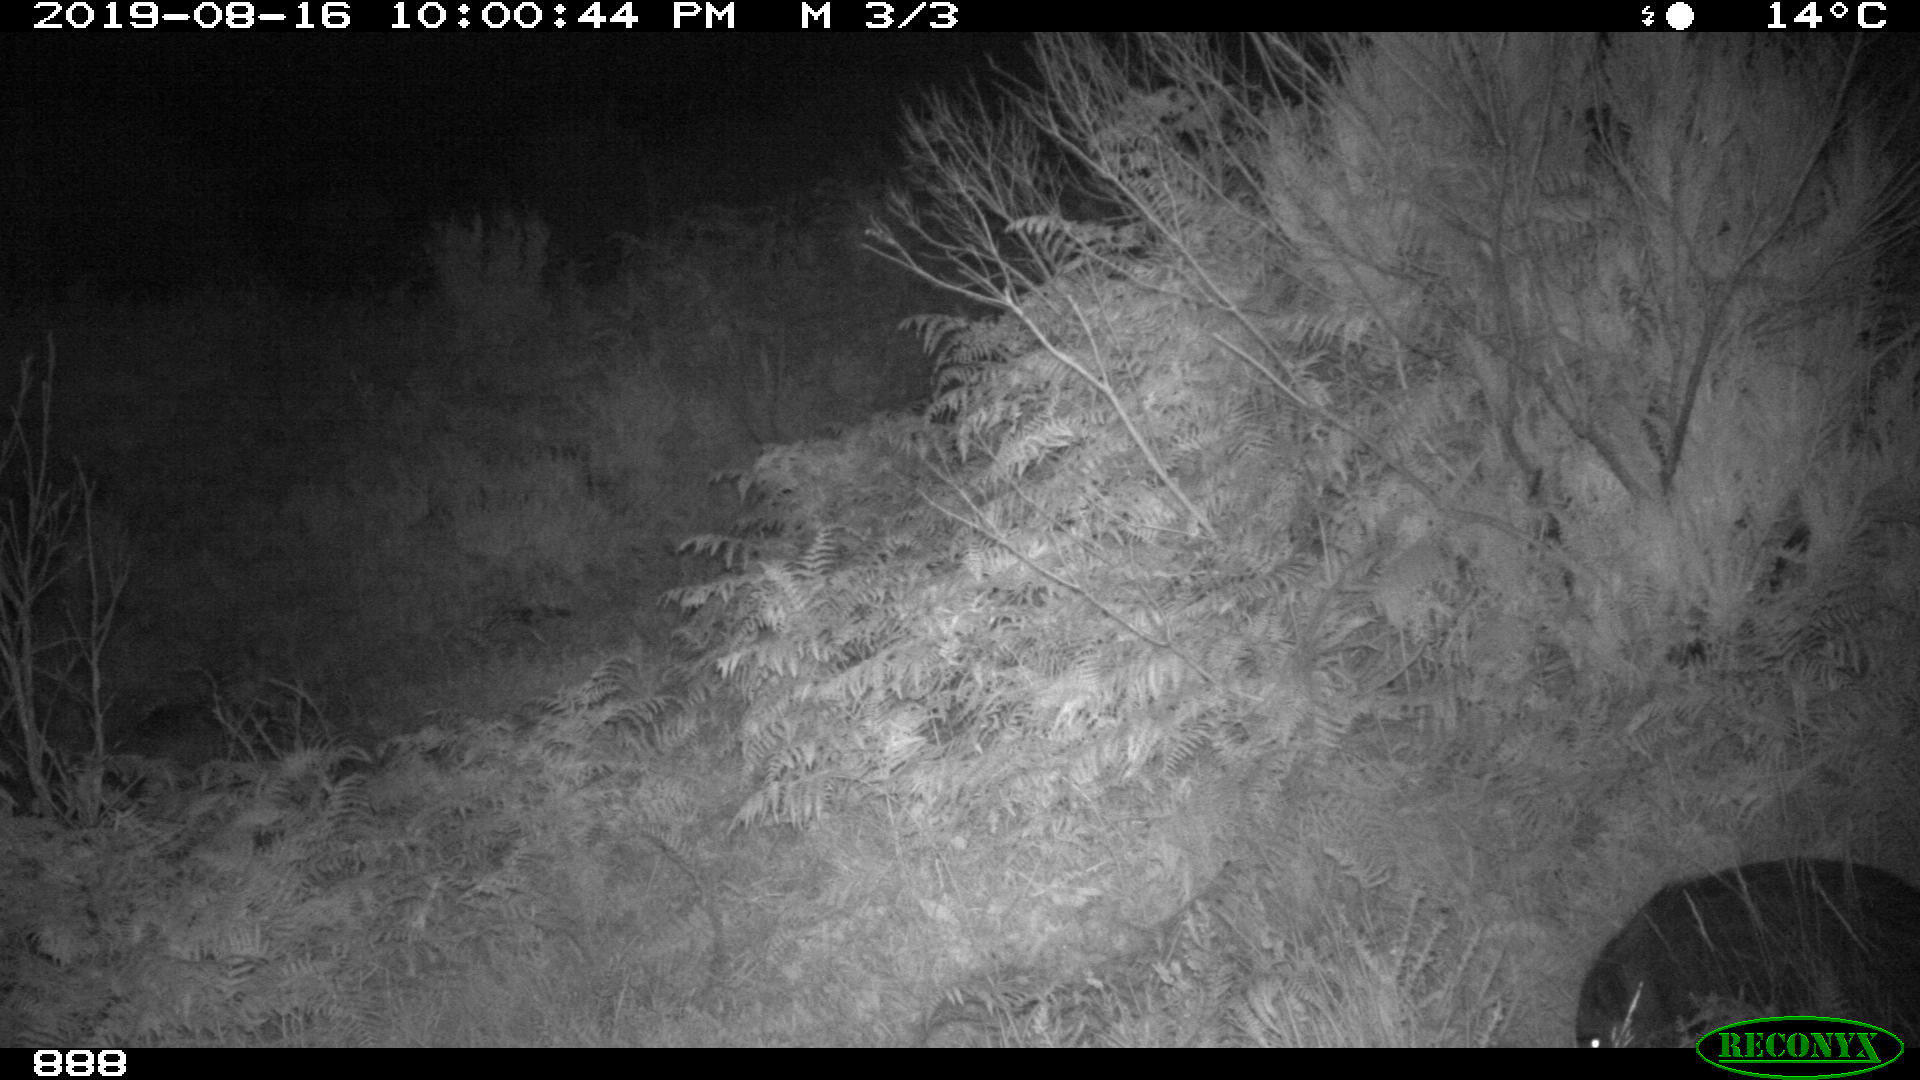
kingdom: Animalia
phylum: Chordata
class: Mammalia
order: Artiodactyla
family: Suidae
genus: Sus
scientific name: Sus scrofa
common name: Wild boar
